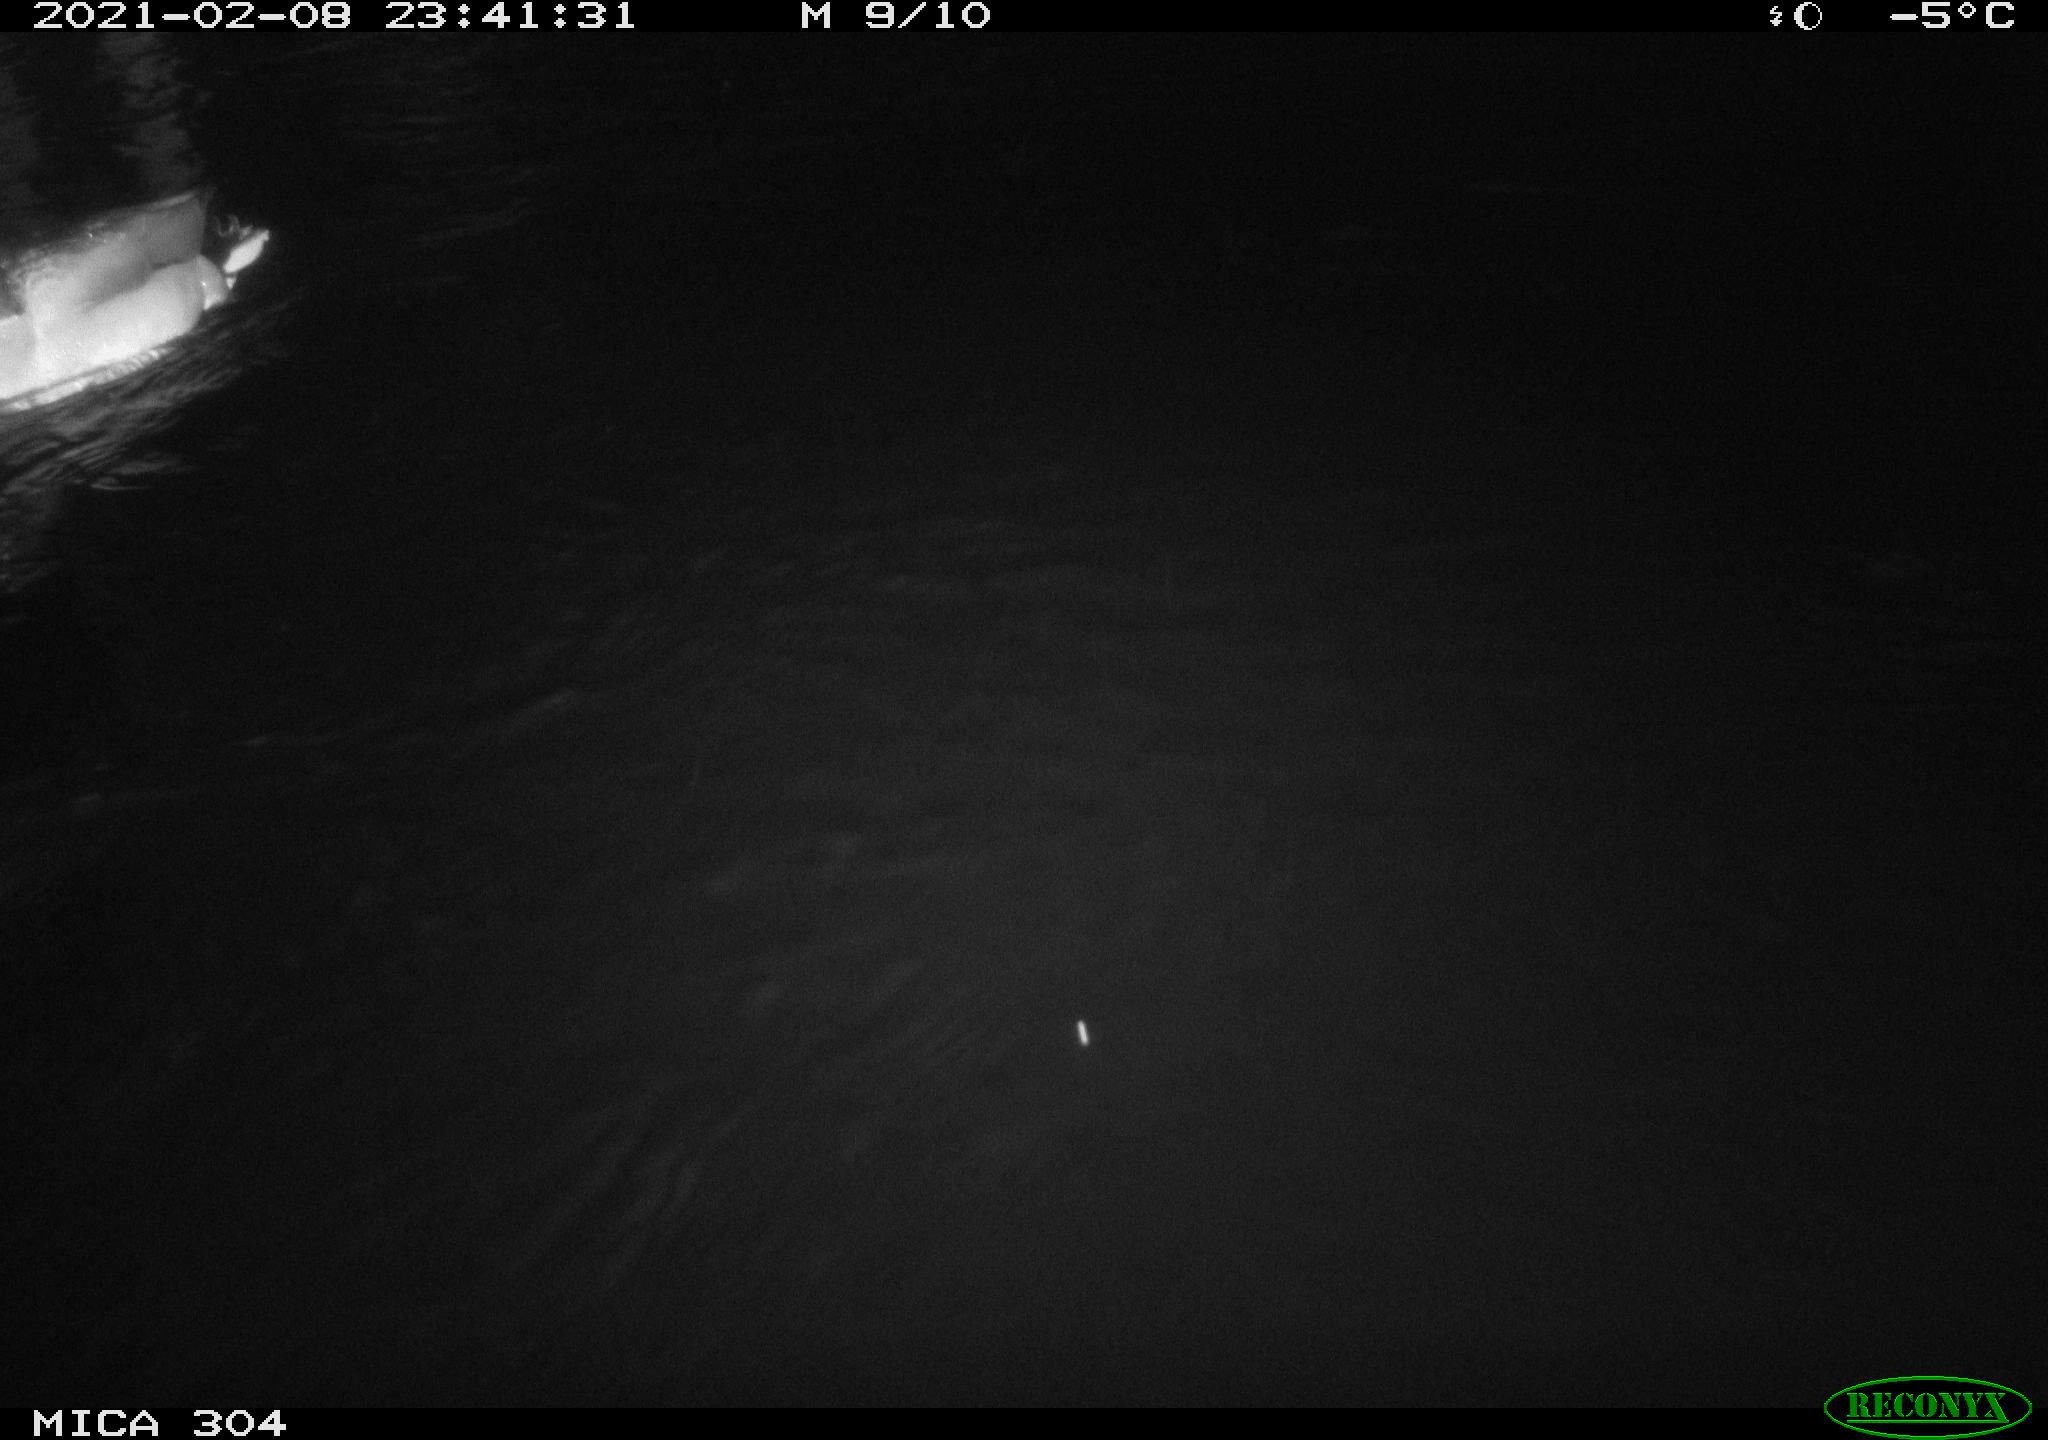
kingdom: Animalia
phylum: Chordata
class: Aves
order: Anseriformes
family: Anatidae
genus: Mareca
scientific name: Mareca strepera
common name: Gadwall
